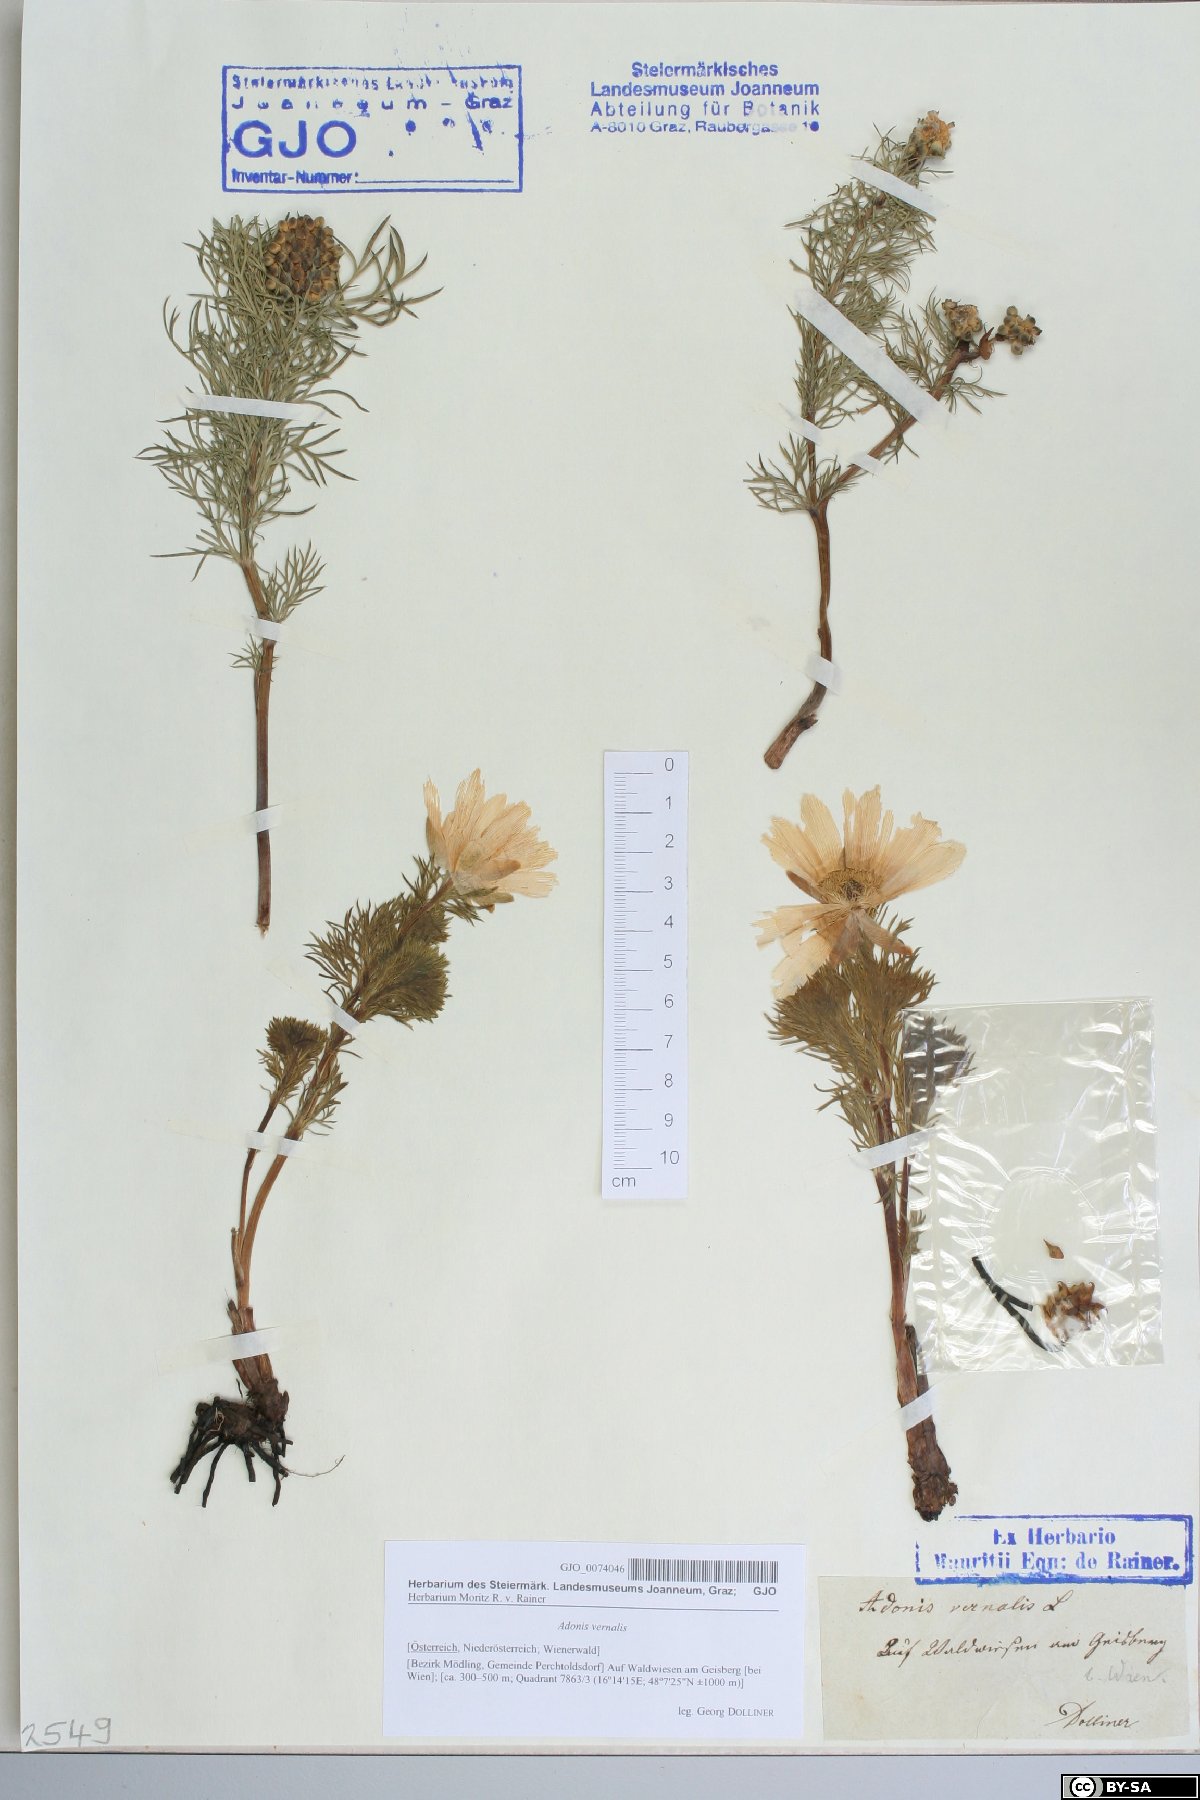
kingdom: Plantae
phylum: Tracheophyta
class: Magnoliopsida
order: Ranunculales
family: Ranunculaceae
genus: Adonis
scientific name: Adonis vernalis
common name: Yellow pheasants-eye
